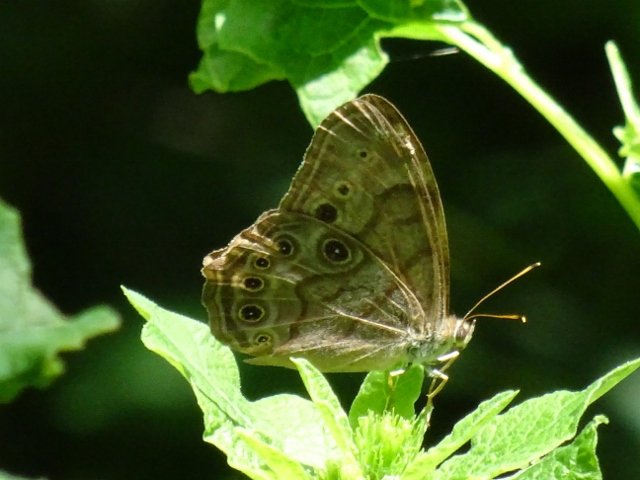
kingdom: Animalia
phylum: Arthropoda
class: Insecta
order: Lepidoptera
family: Nymphalidae
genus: Lethe
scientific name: Lethe anthedon
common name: Northern Pearly-Eye
